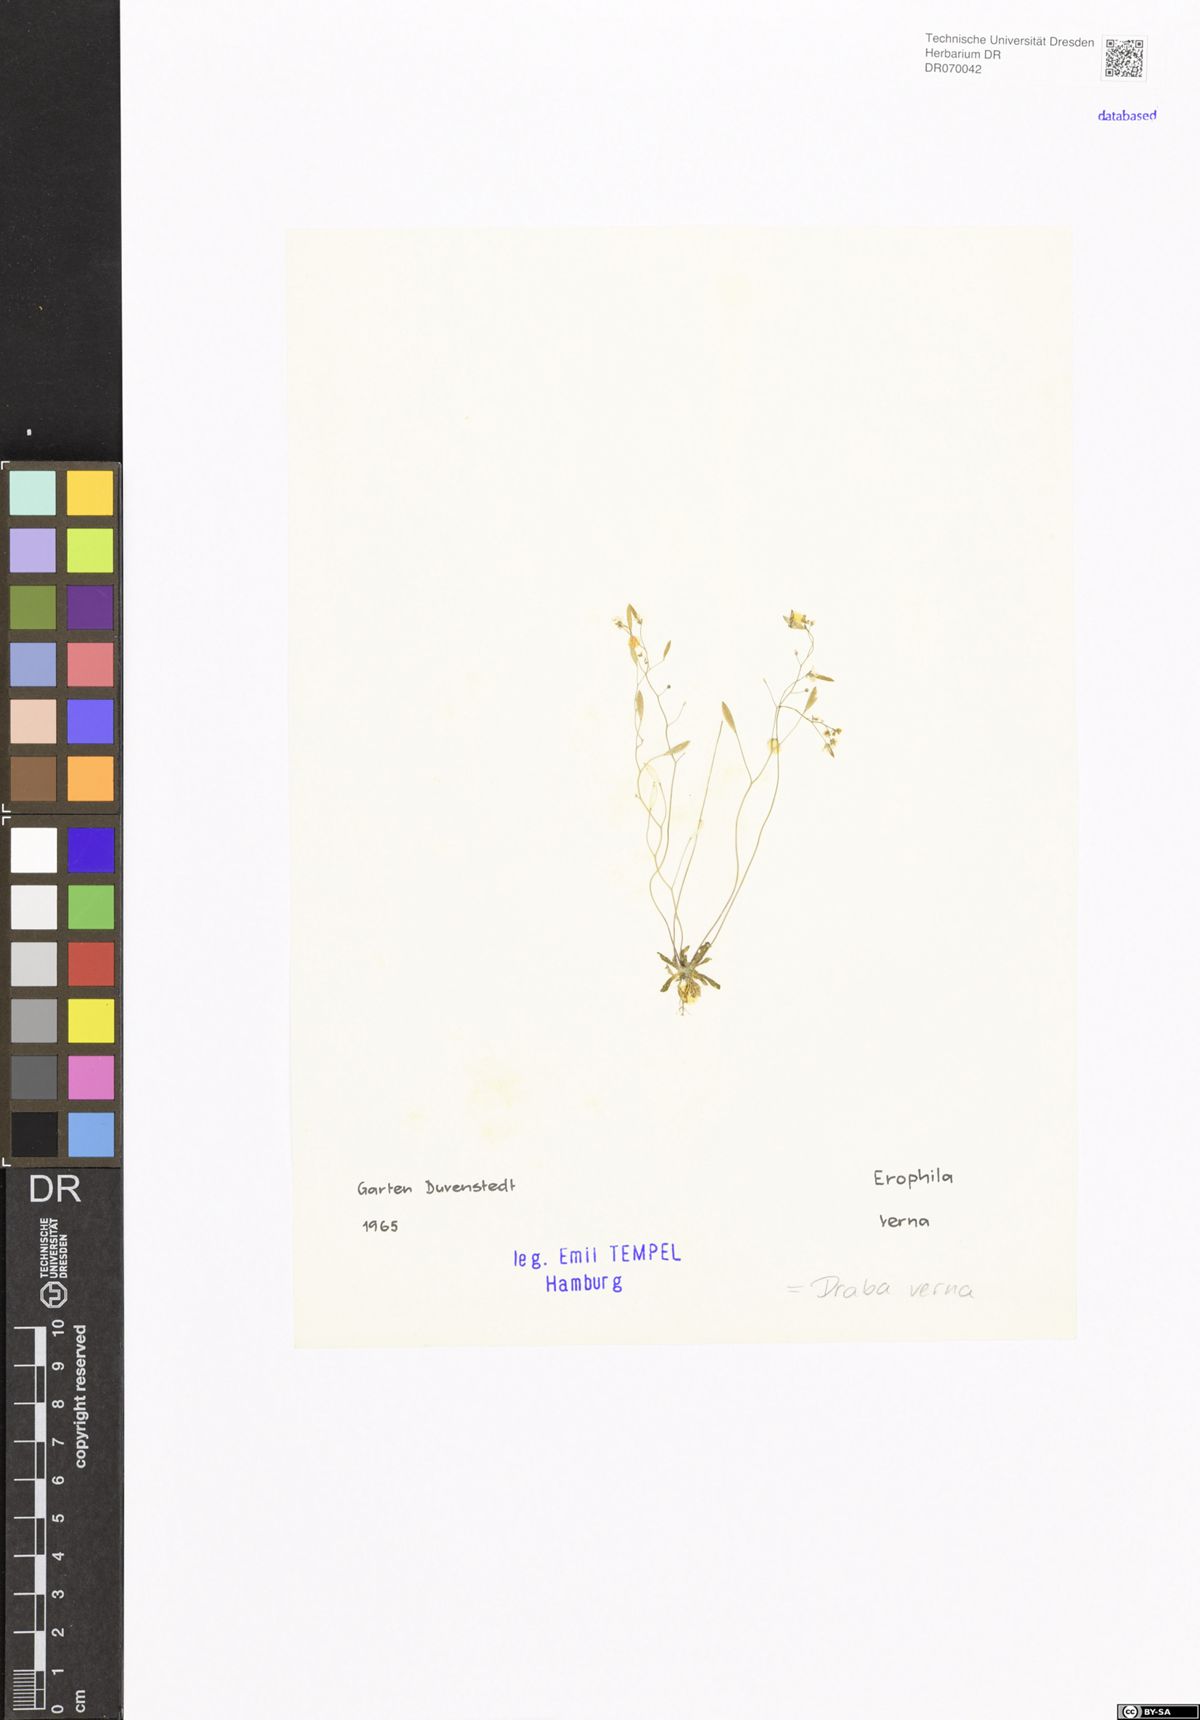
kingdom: Plantae
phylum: Tracheophyta
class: Magnoliopsida
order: Brassicales
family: Brassicaceae
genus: Draba
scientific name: Draba verna
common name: Spring draba
